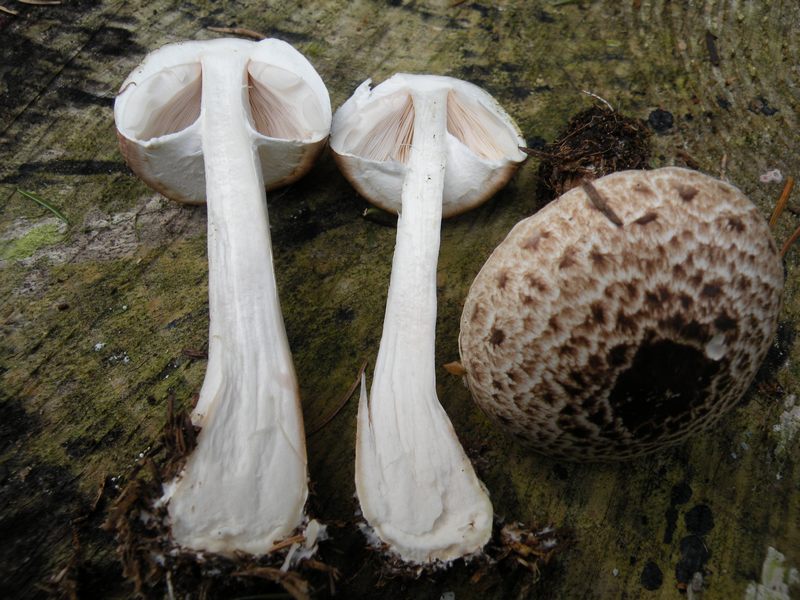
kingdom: Fungi
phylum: Basidiomycota
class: Agaricomycetes
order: Agaricales
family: Agaricaceae
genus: Agaricus
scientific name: Agaricus impudicus
